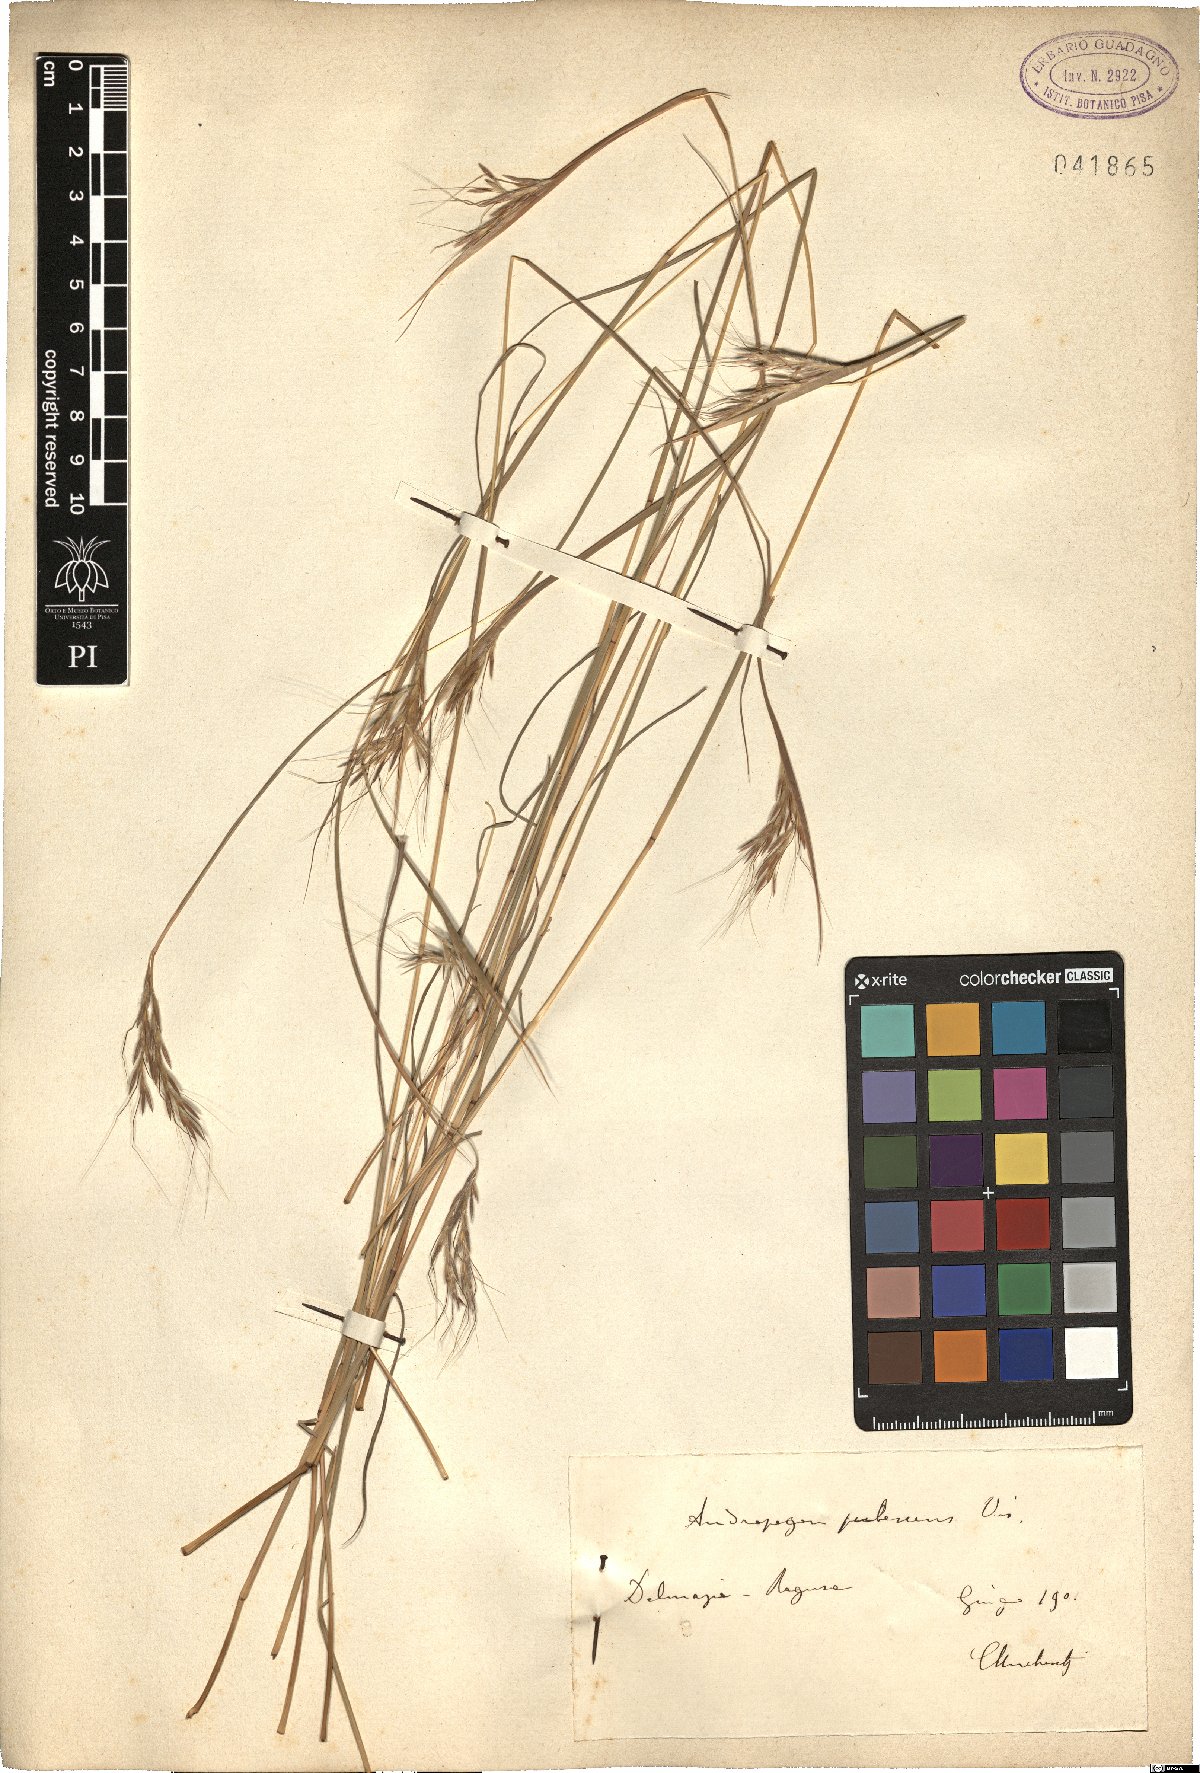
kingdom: Plantae
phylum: Tracheophyta
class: Liliopsida
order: Poales
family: Poaceae
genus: Hyparrhenia
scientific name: Hyparrhenia hirta
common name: Thatching grass
